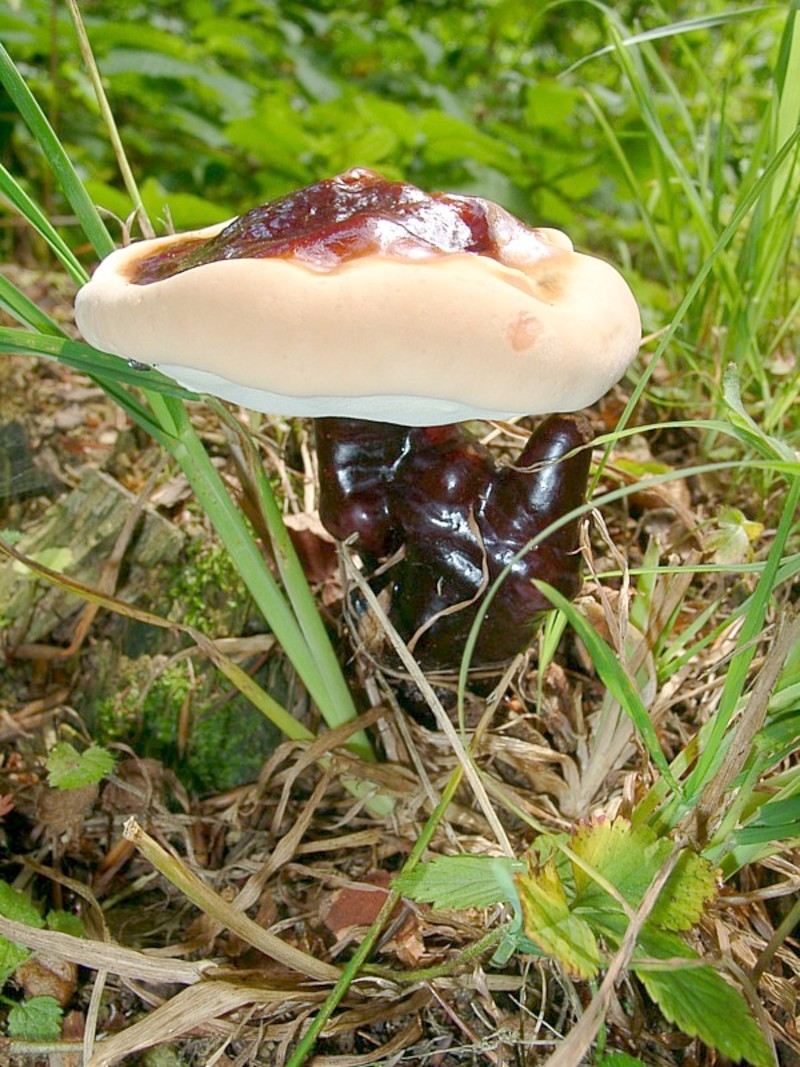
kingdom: Fungi
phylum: Basidiomycota
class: Agaricomycetes
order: Polyporales
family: Polyporaceae
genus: Ganoderma
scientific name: Ganoderma lucidum
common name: Lacquered bracket
